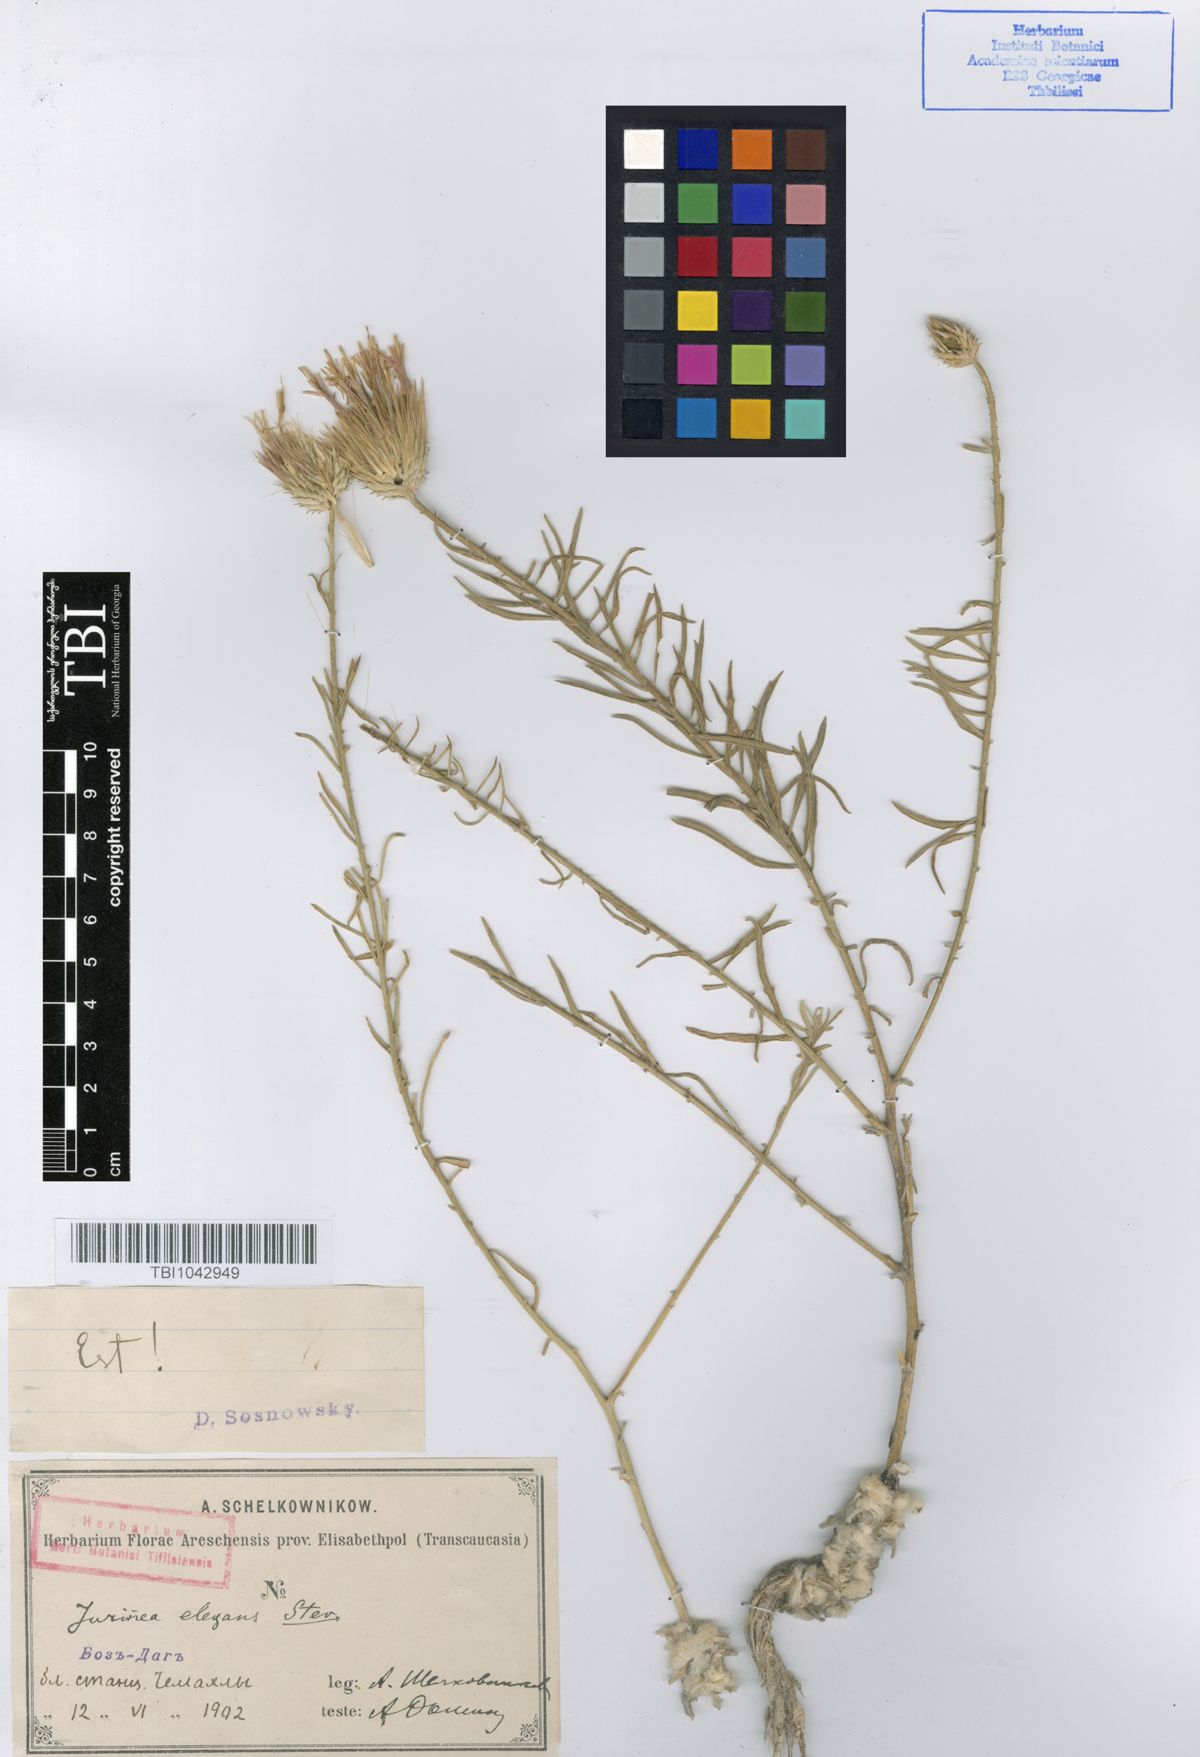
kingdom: Plantae
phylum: Tracheophyta
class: Magnoliopsida
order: Asterales
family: Asteraceae
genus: Jurinea
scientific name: Jurinea elegans
